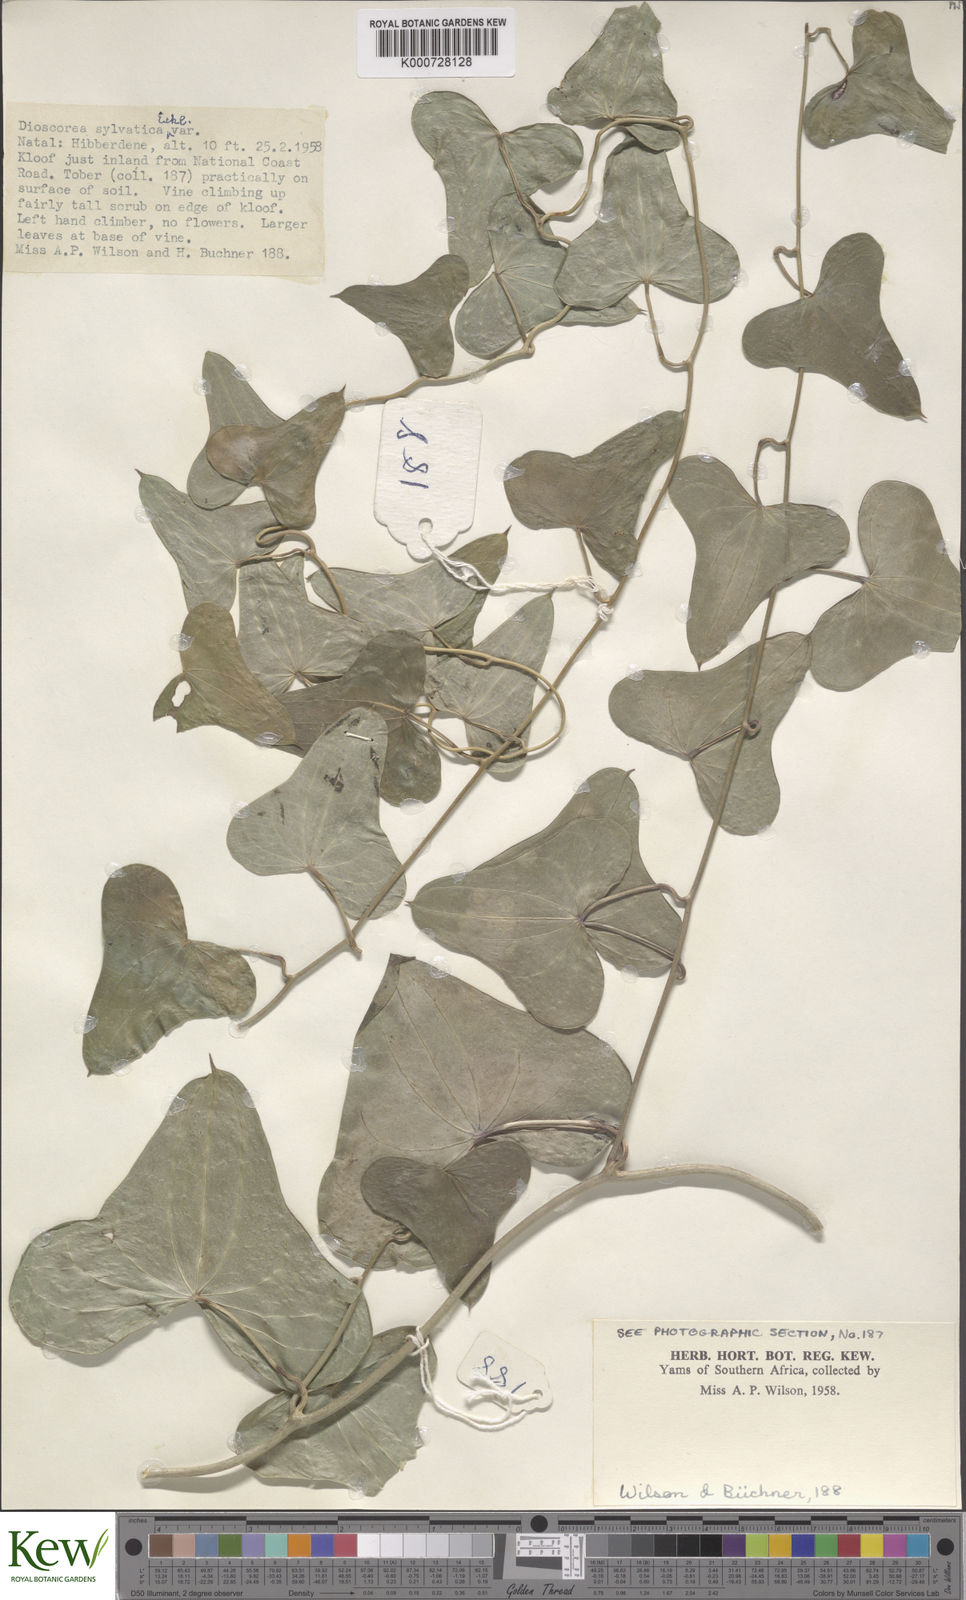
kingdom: Plantae
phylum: Tracheophyta
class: Liliopsida
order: Dioscoreales
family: Dioscoreaceae
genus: Dioscorea
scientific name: Dioscorea sylvatica
